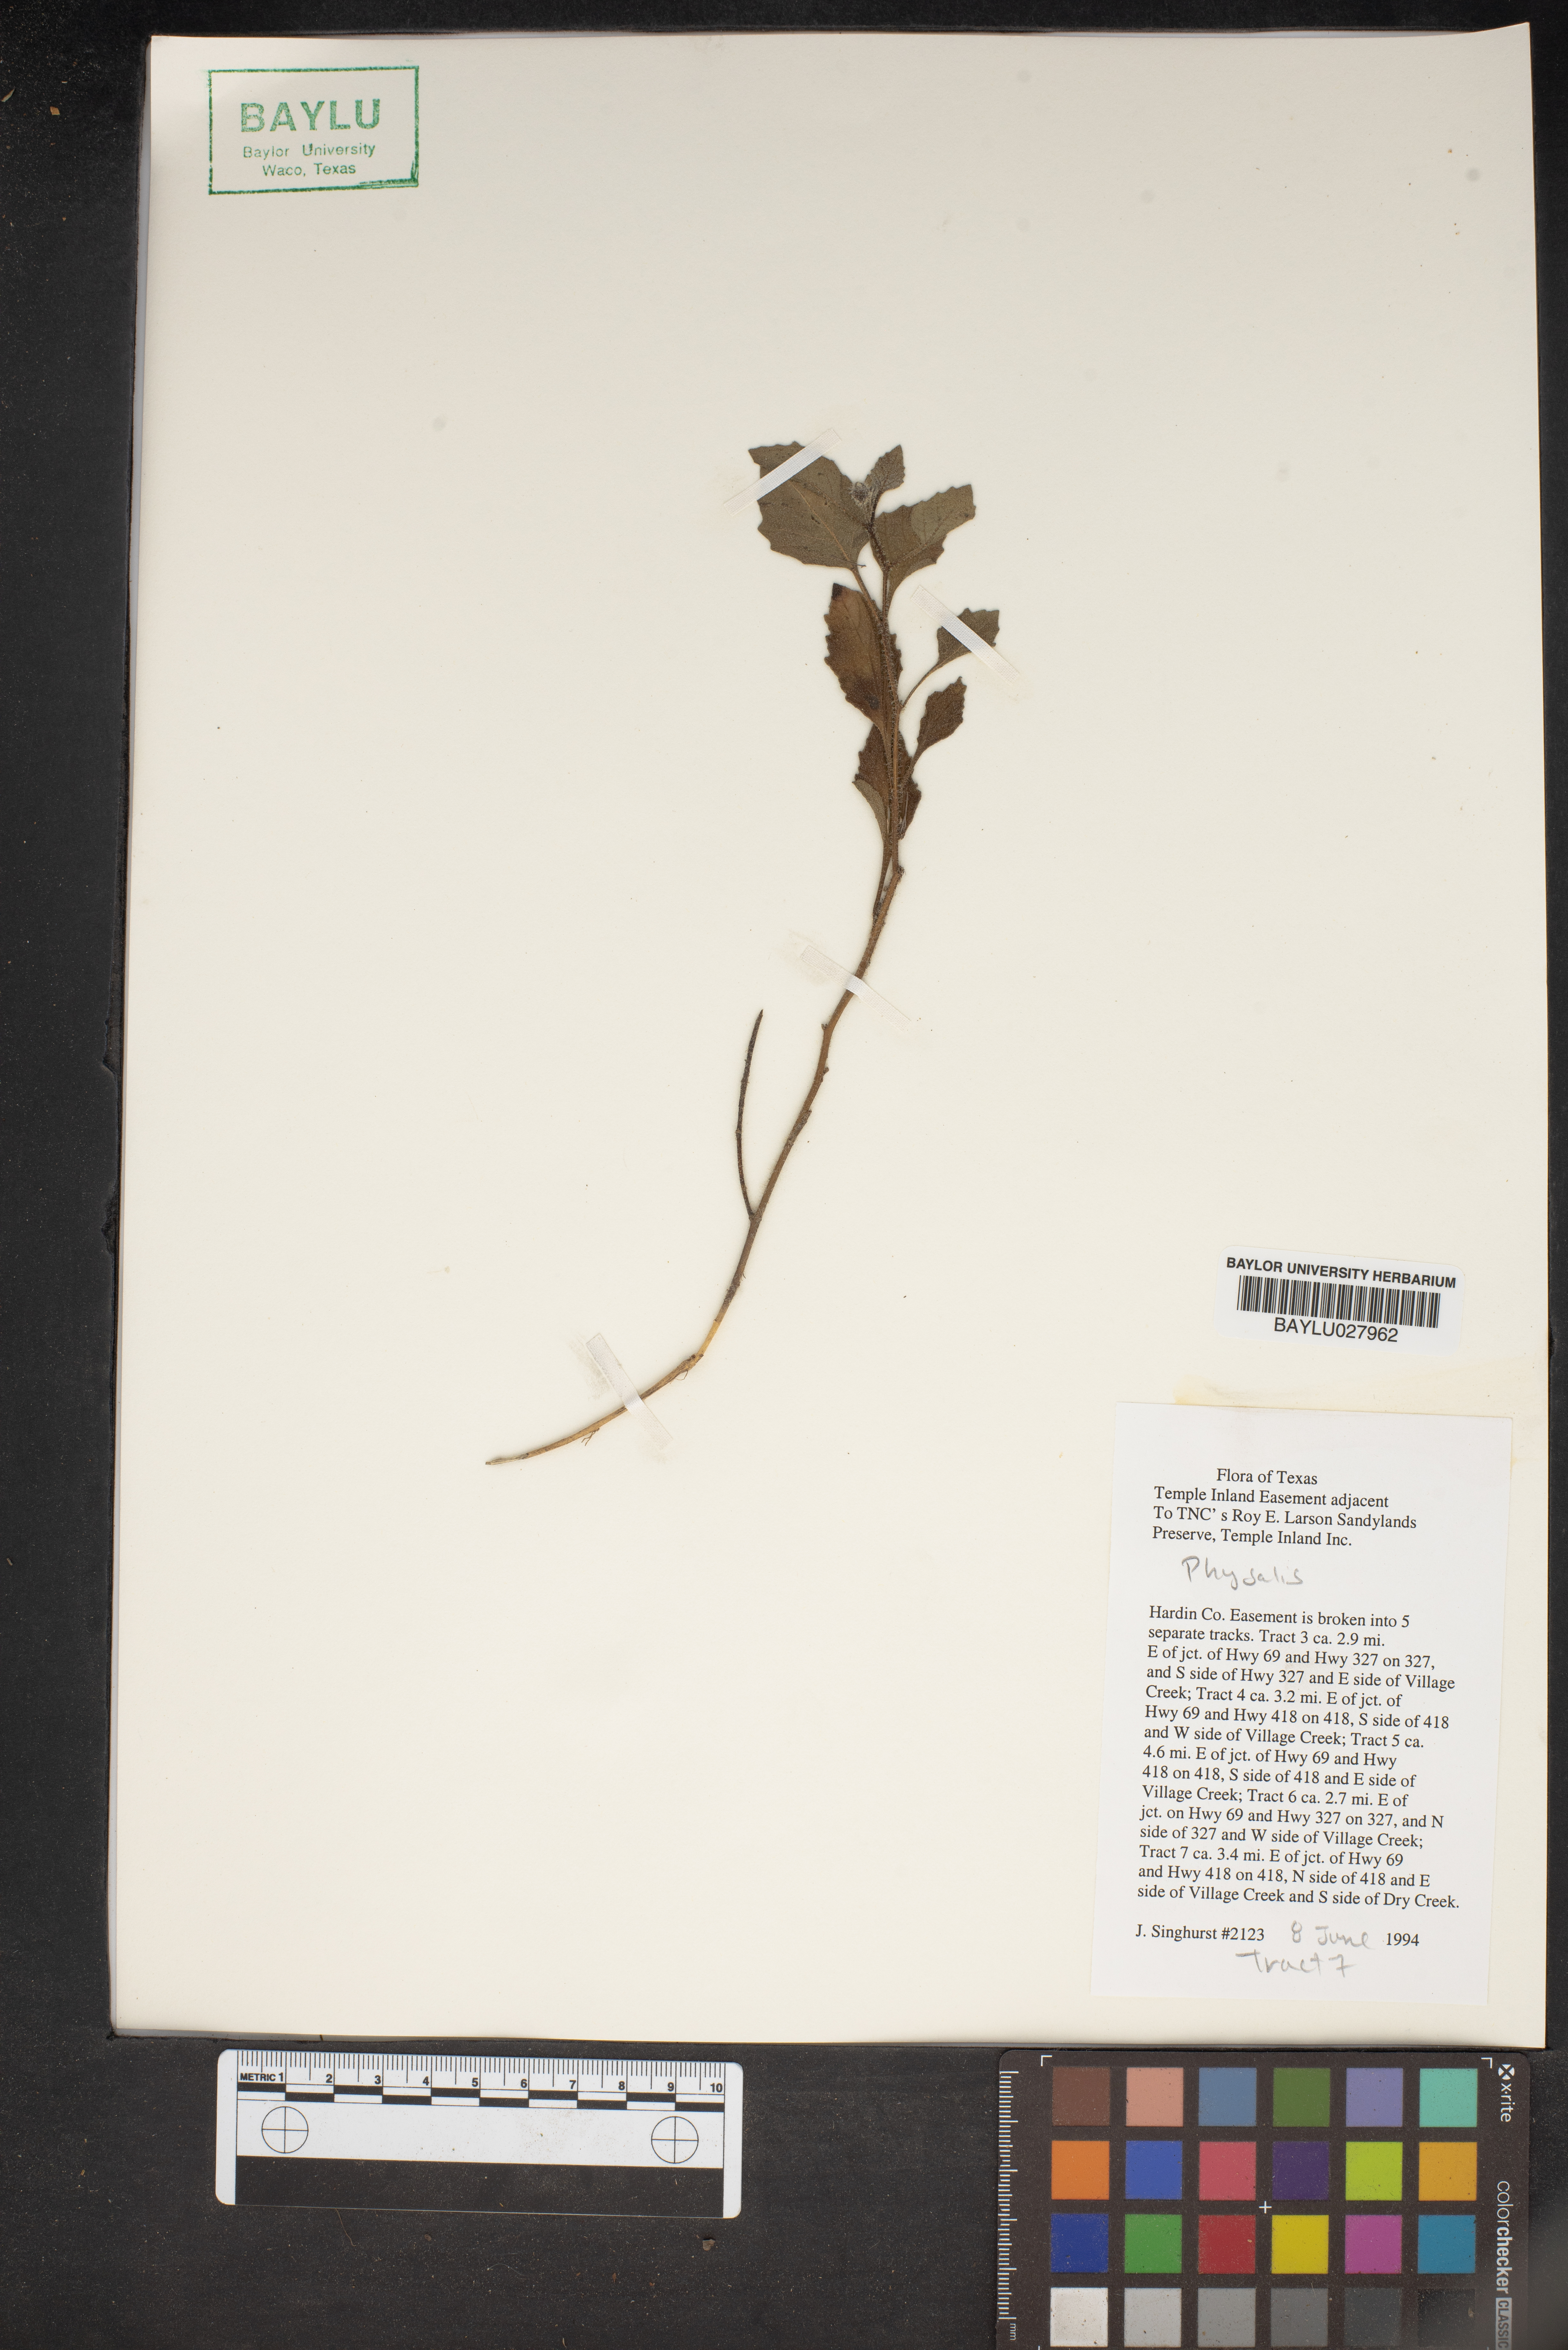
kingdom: Plantae
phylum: Tracheophyta
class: Magnoliopsida
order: Solanales
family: Solanaceae
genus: Physalis
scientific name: Physalis
